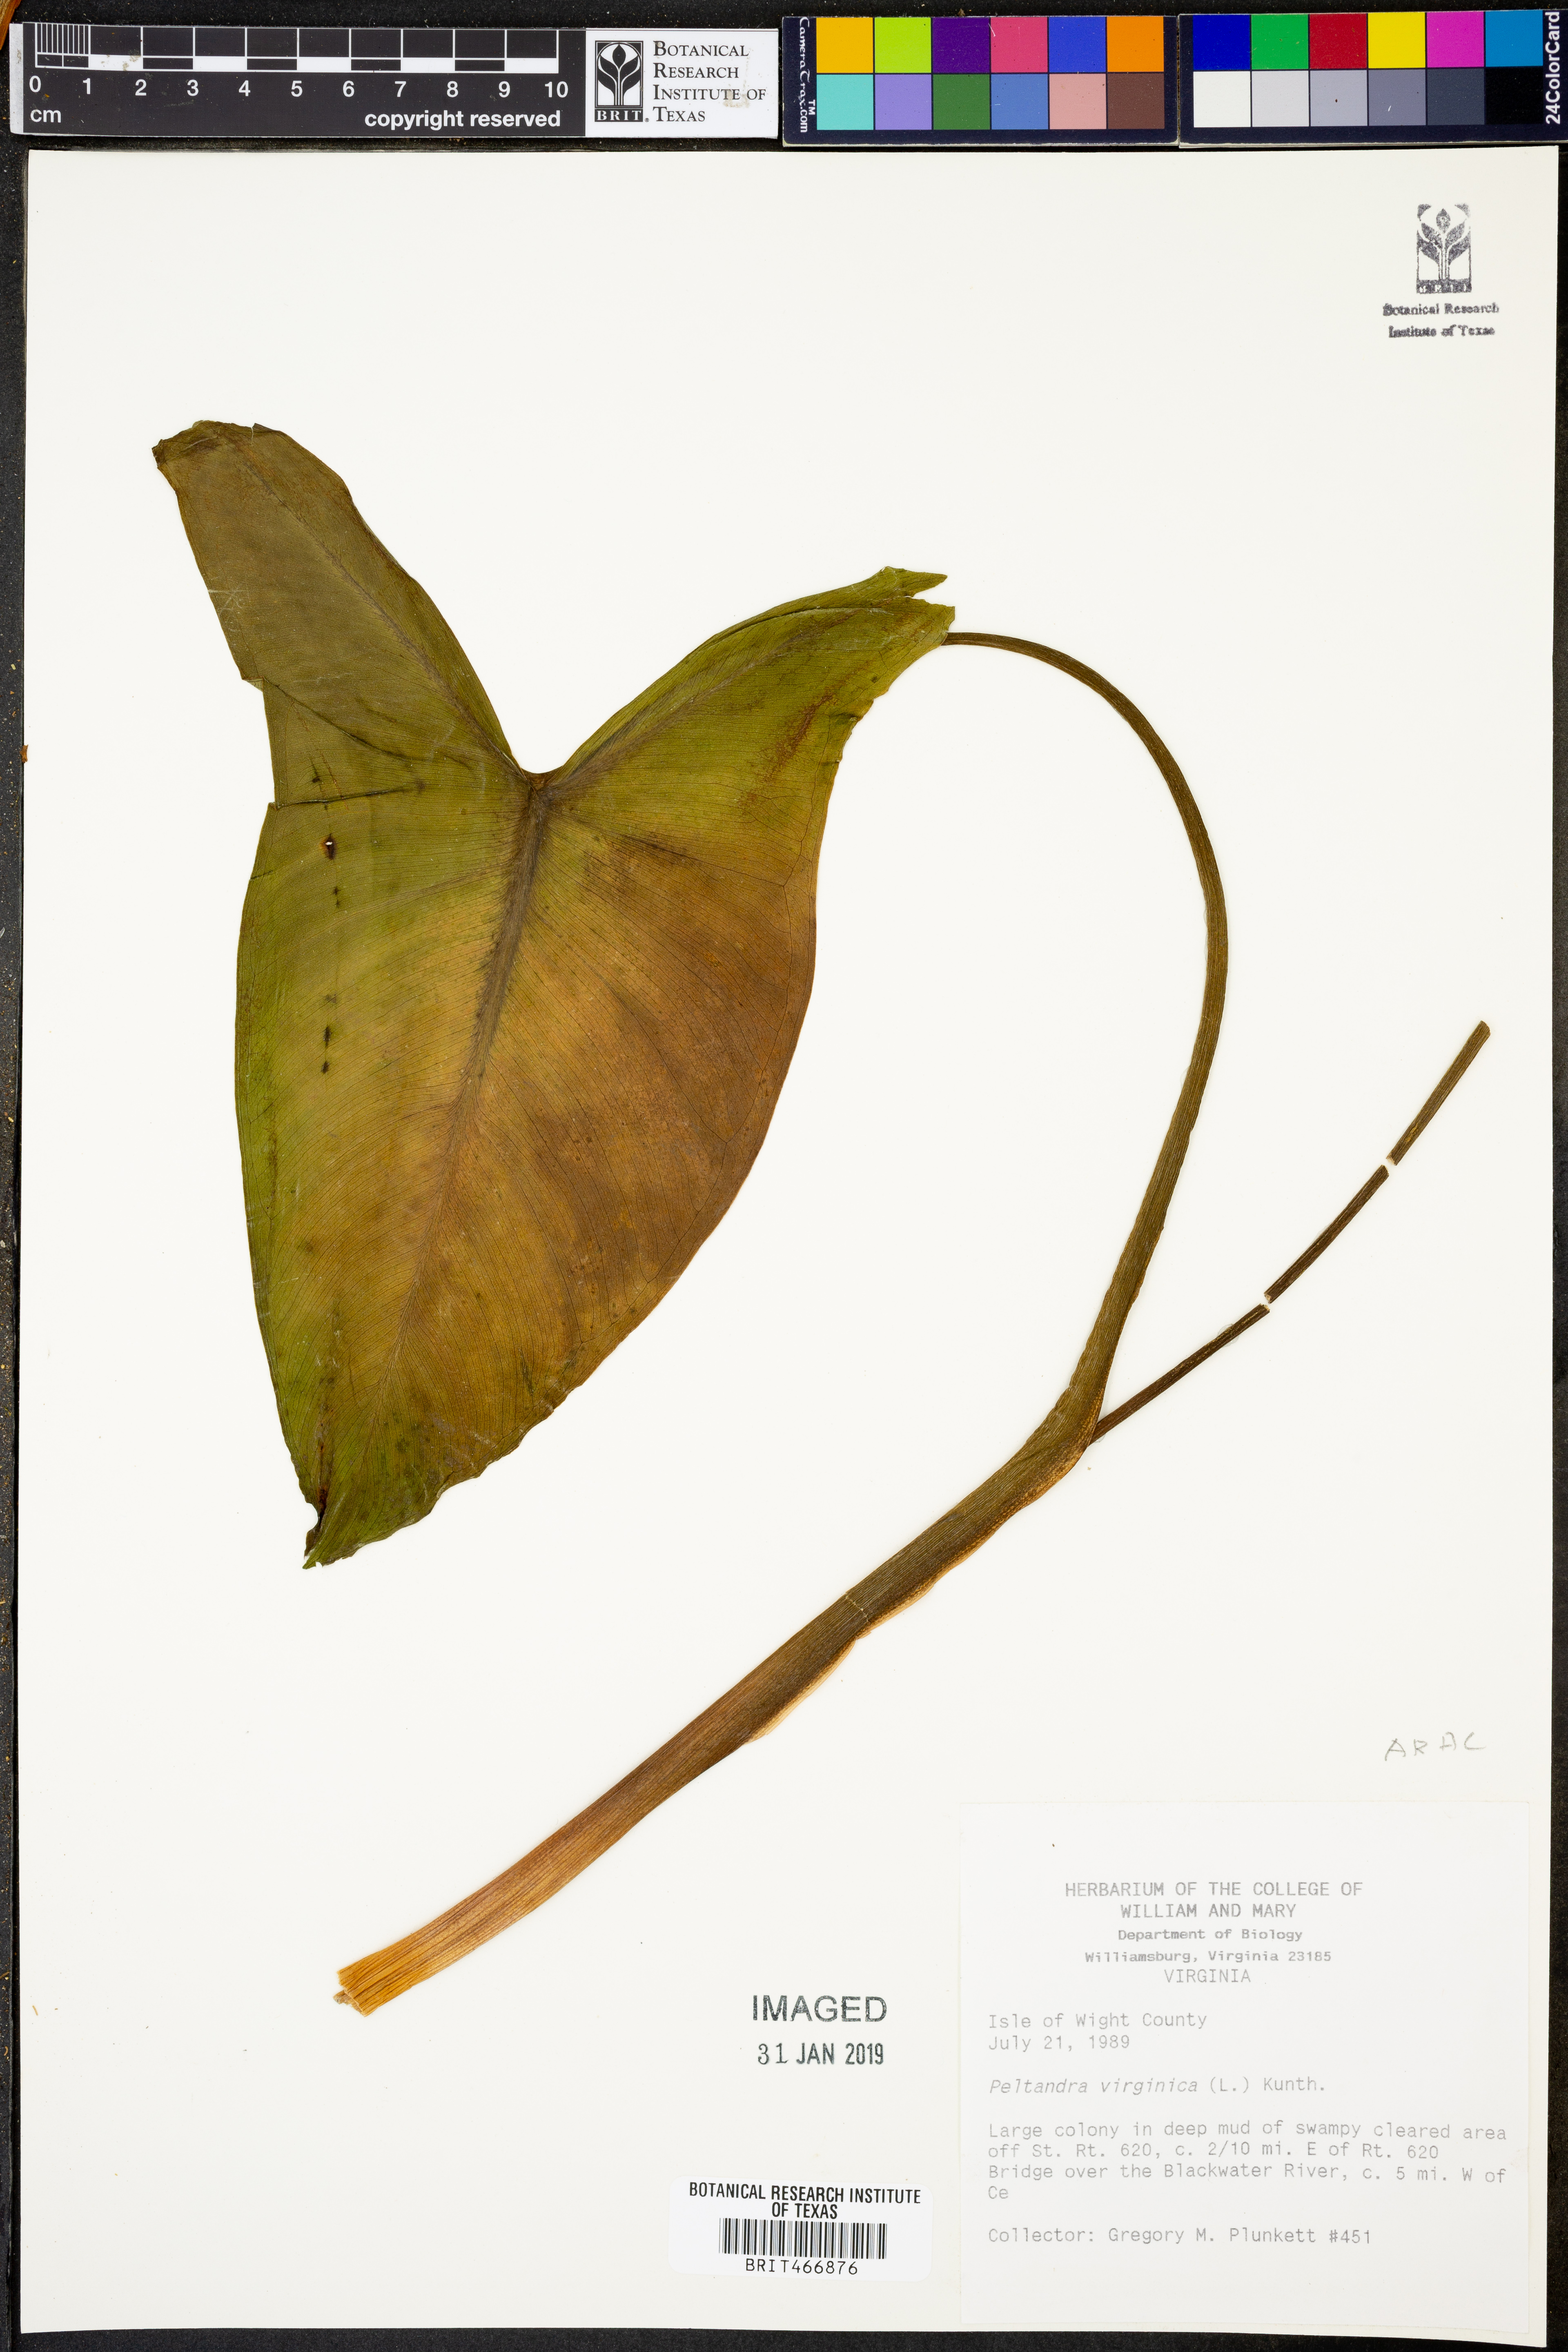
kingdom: Plantae
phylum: Tracheophyta
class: Liliopsida
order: Alismatales
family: Araceae
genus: Peltandra
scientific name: Peltandra virginica
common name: Arrow arum
